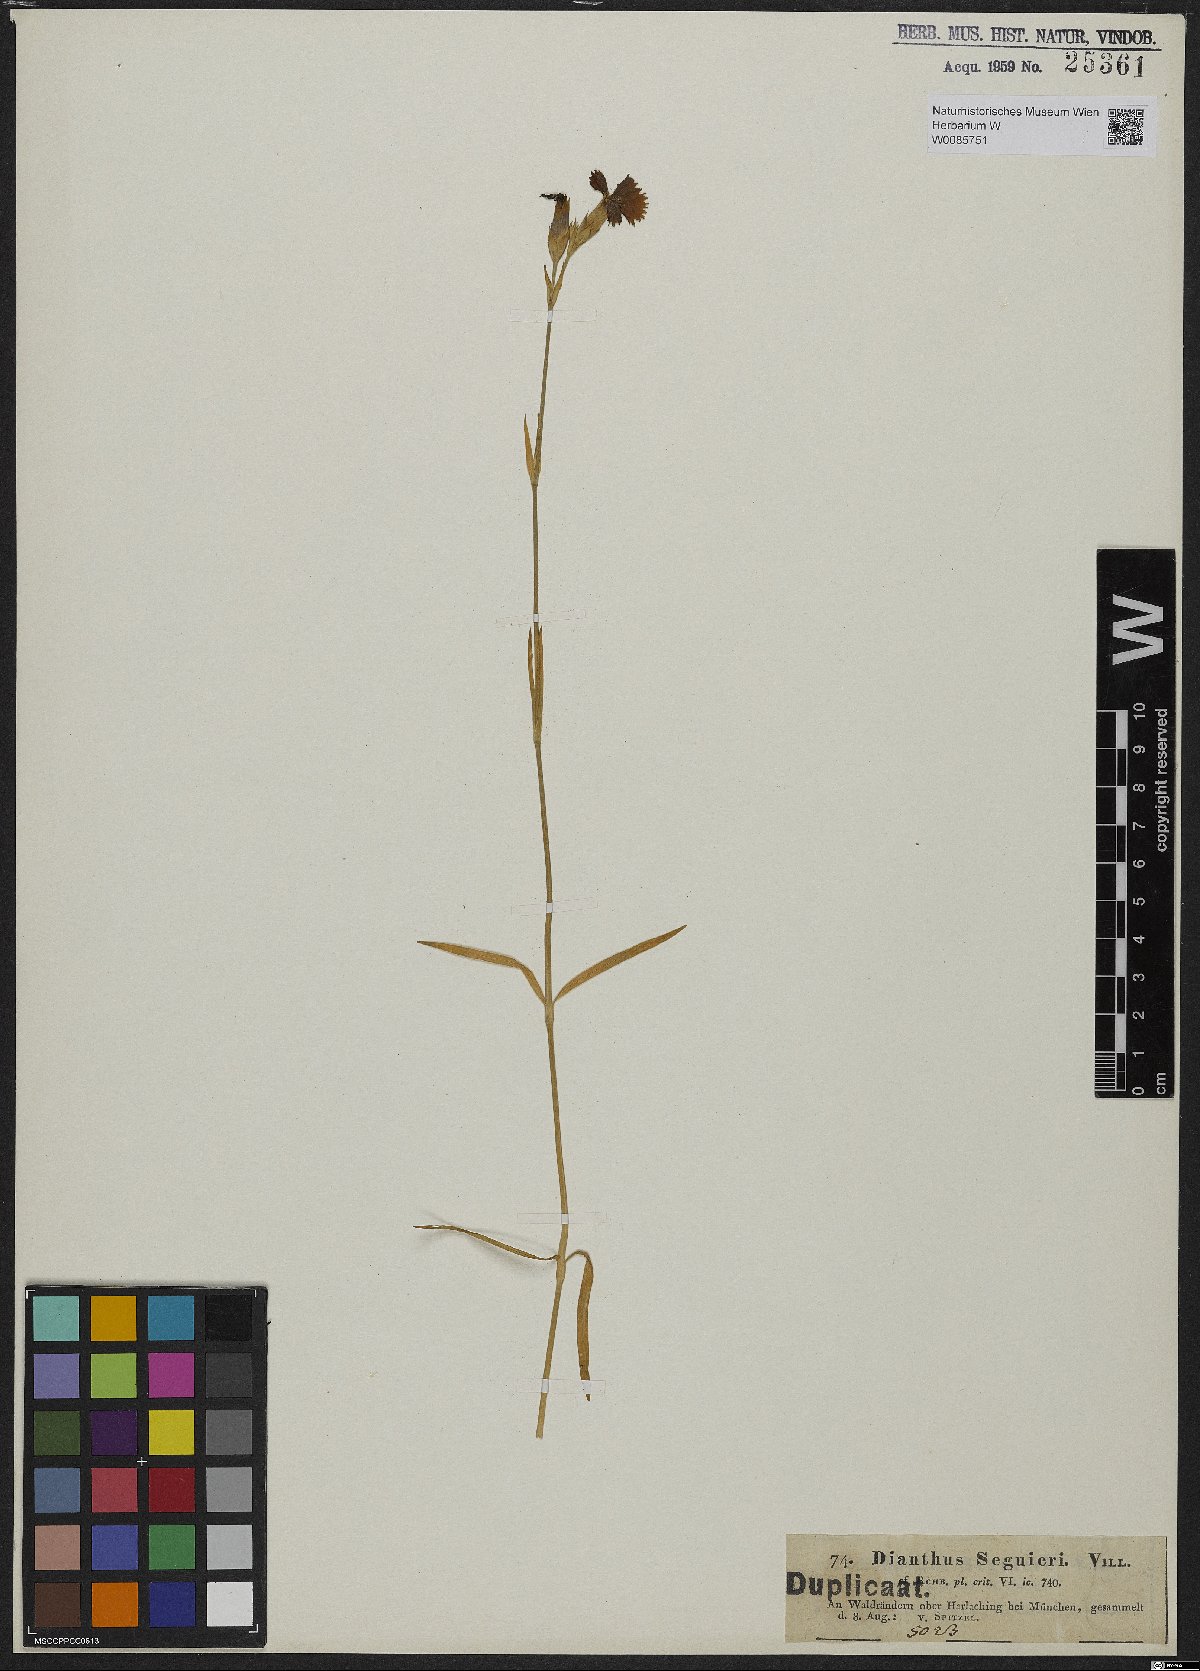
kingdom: Plantae
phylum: Tracheophyta
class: Magnoliopsida
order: Caryophyllales
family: Caryophyllaceae
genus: Dianthus
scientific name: Dianthus seguieri
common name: Ragged pink
